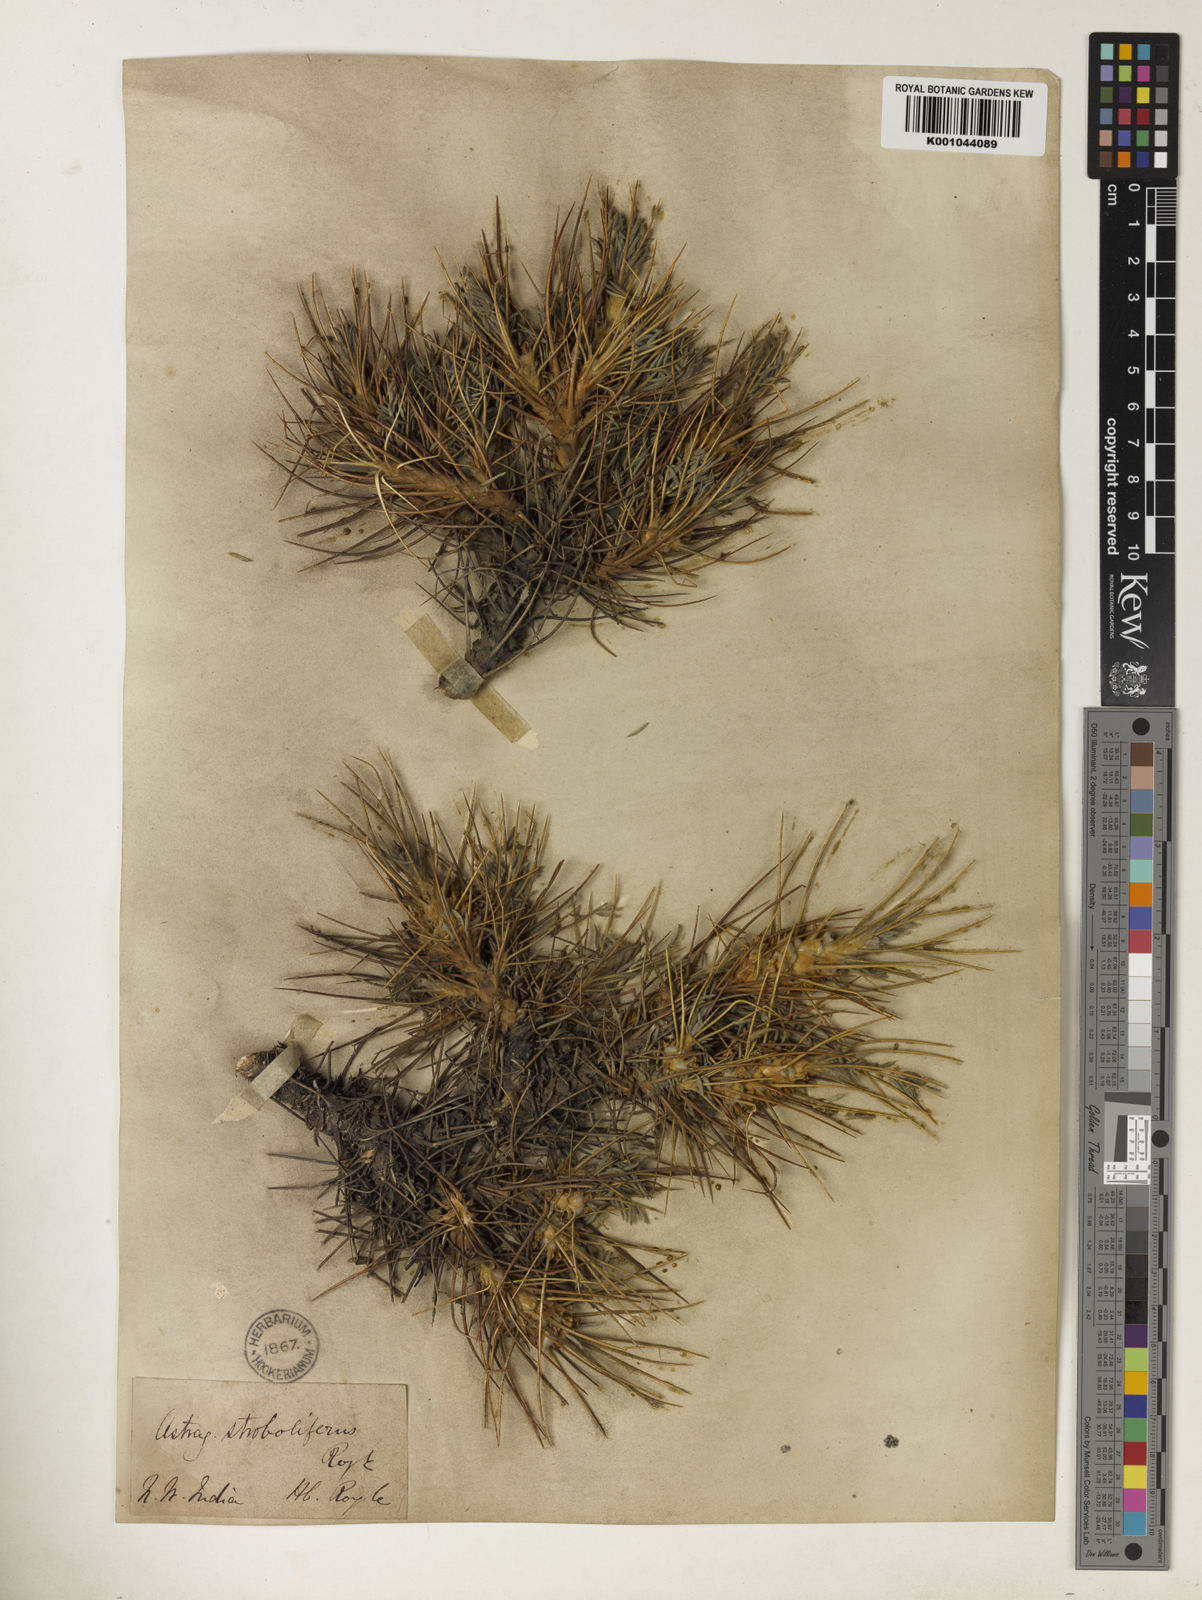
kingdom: Plantae
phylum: Tracheophyta
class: Magnoliopsida
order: Fabales
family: Fabaceae
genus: Astragalus
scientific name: Astragalus
